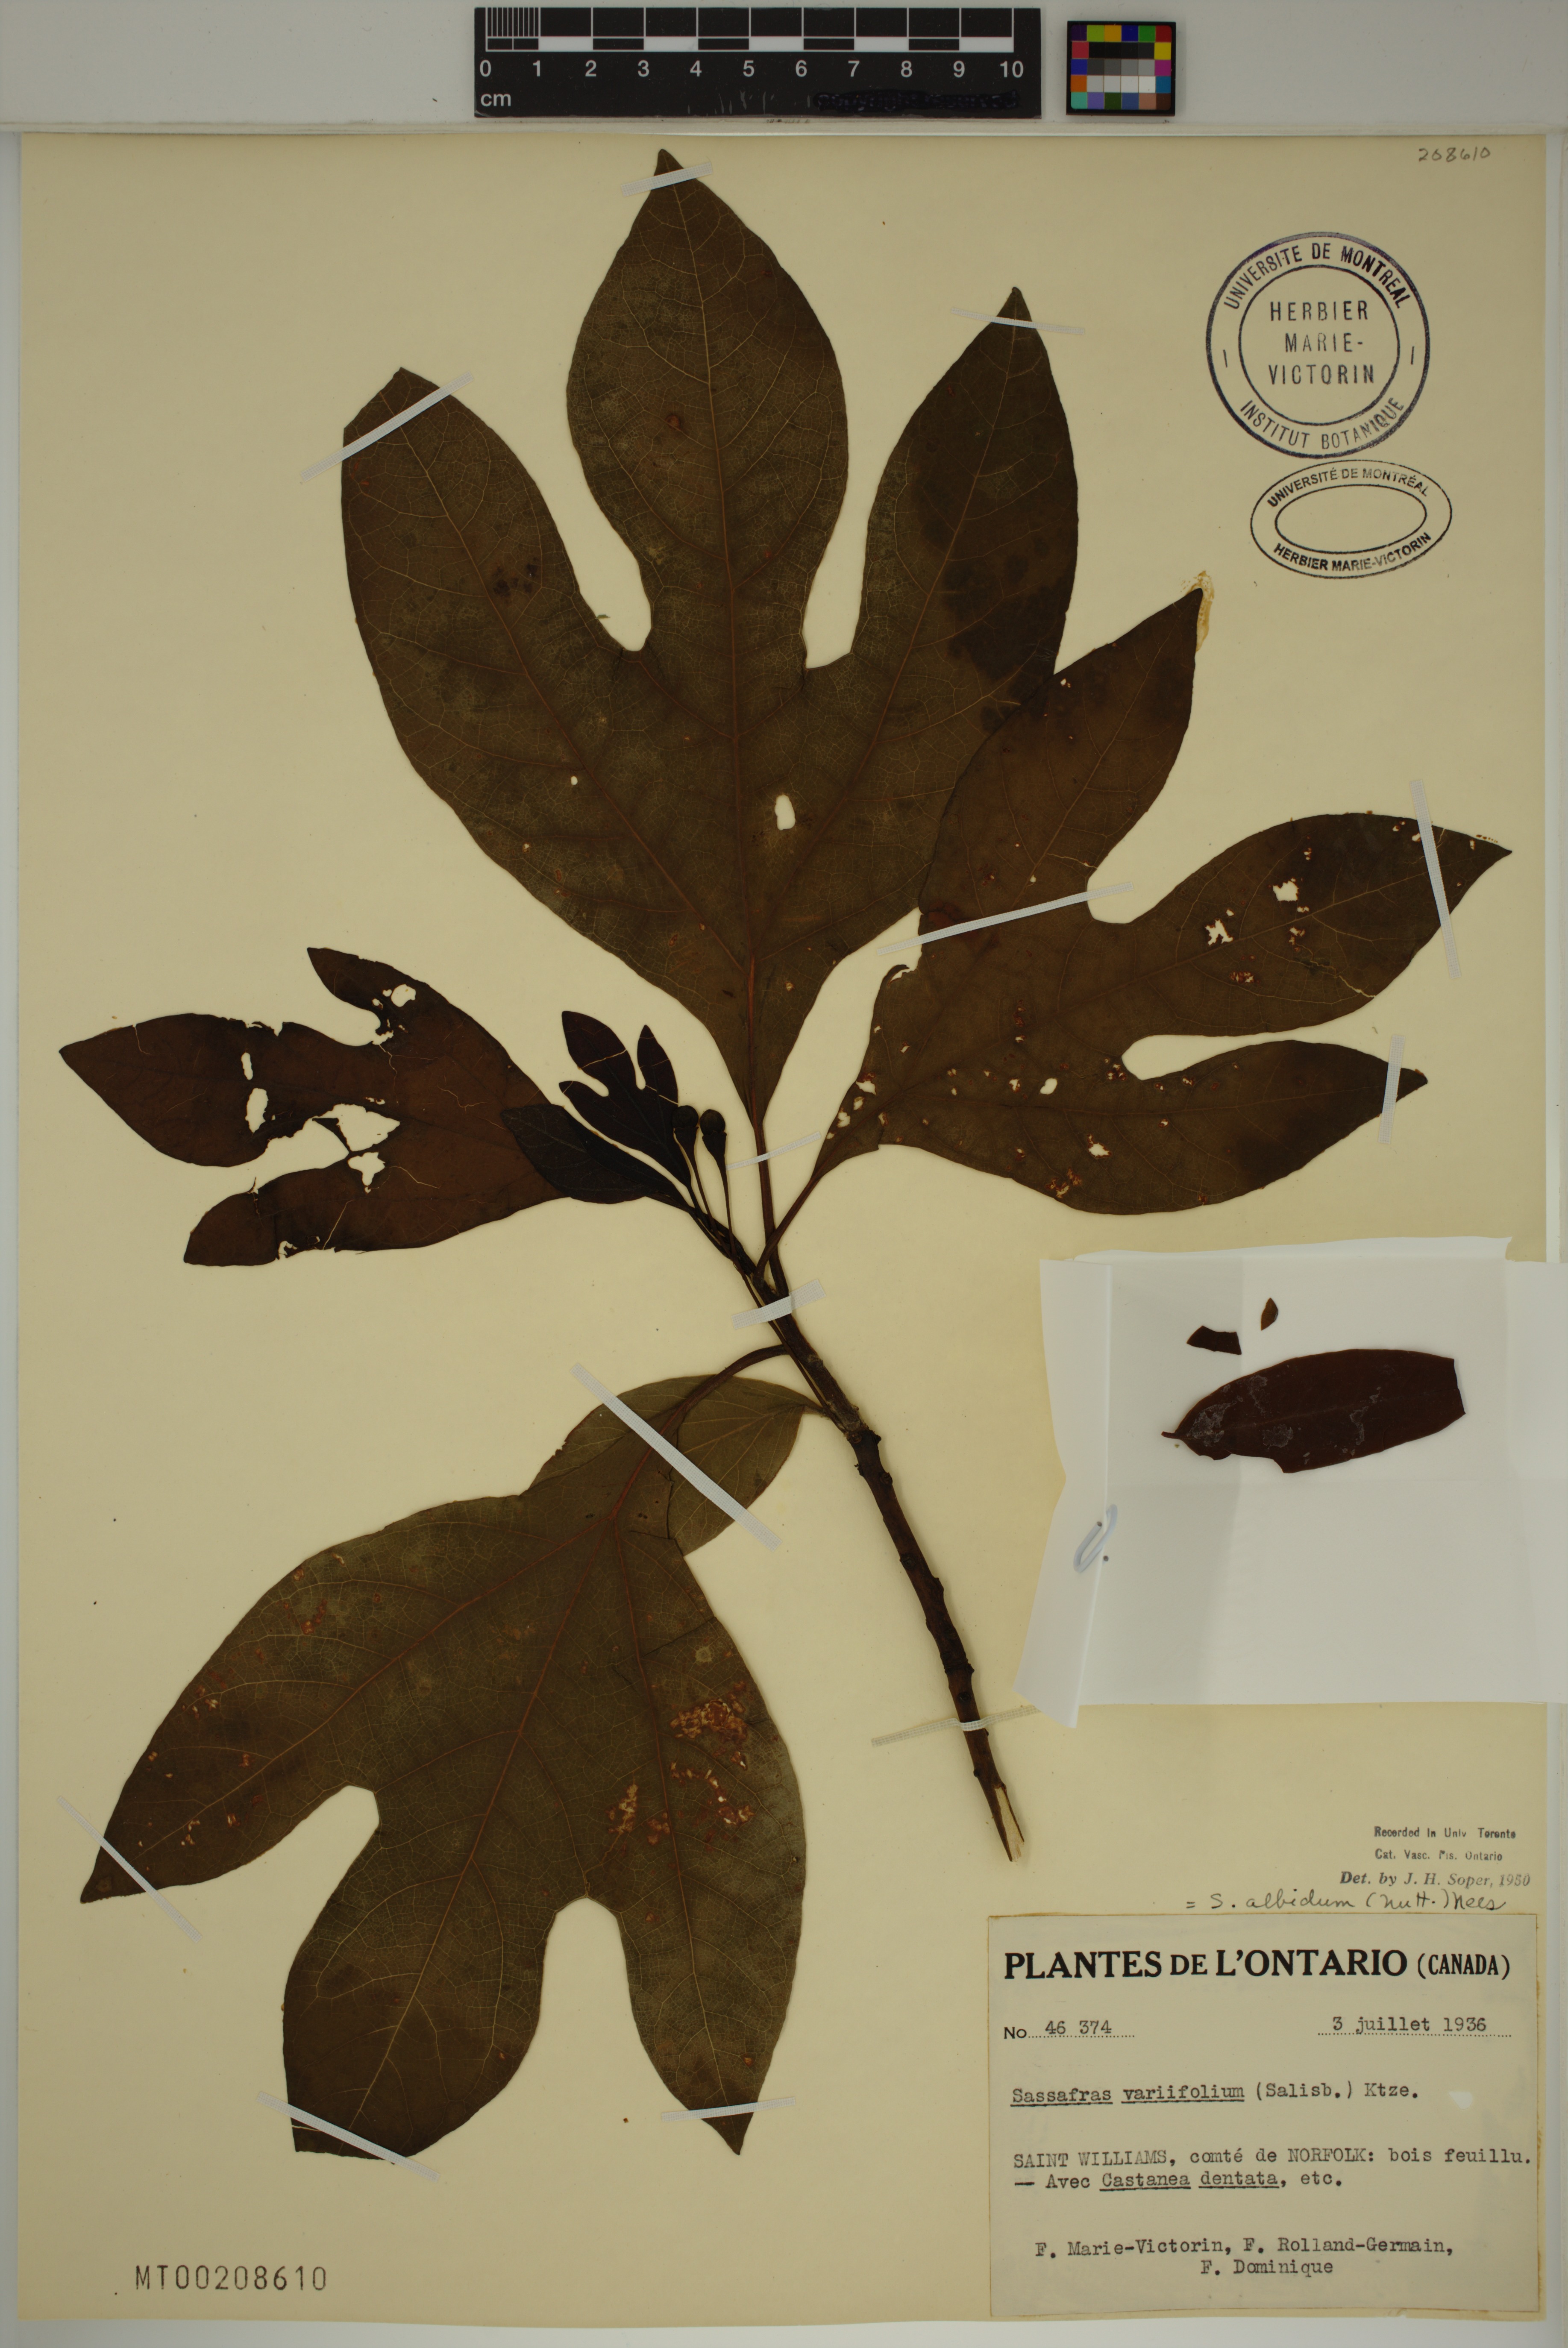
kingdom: Plantae
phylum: Tracheophyta
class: Magnoliopsida
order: Laurales
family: Lauraceae
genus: Sassafras
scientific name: Sassafras albidum
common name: Sassafras
